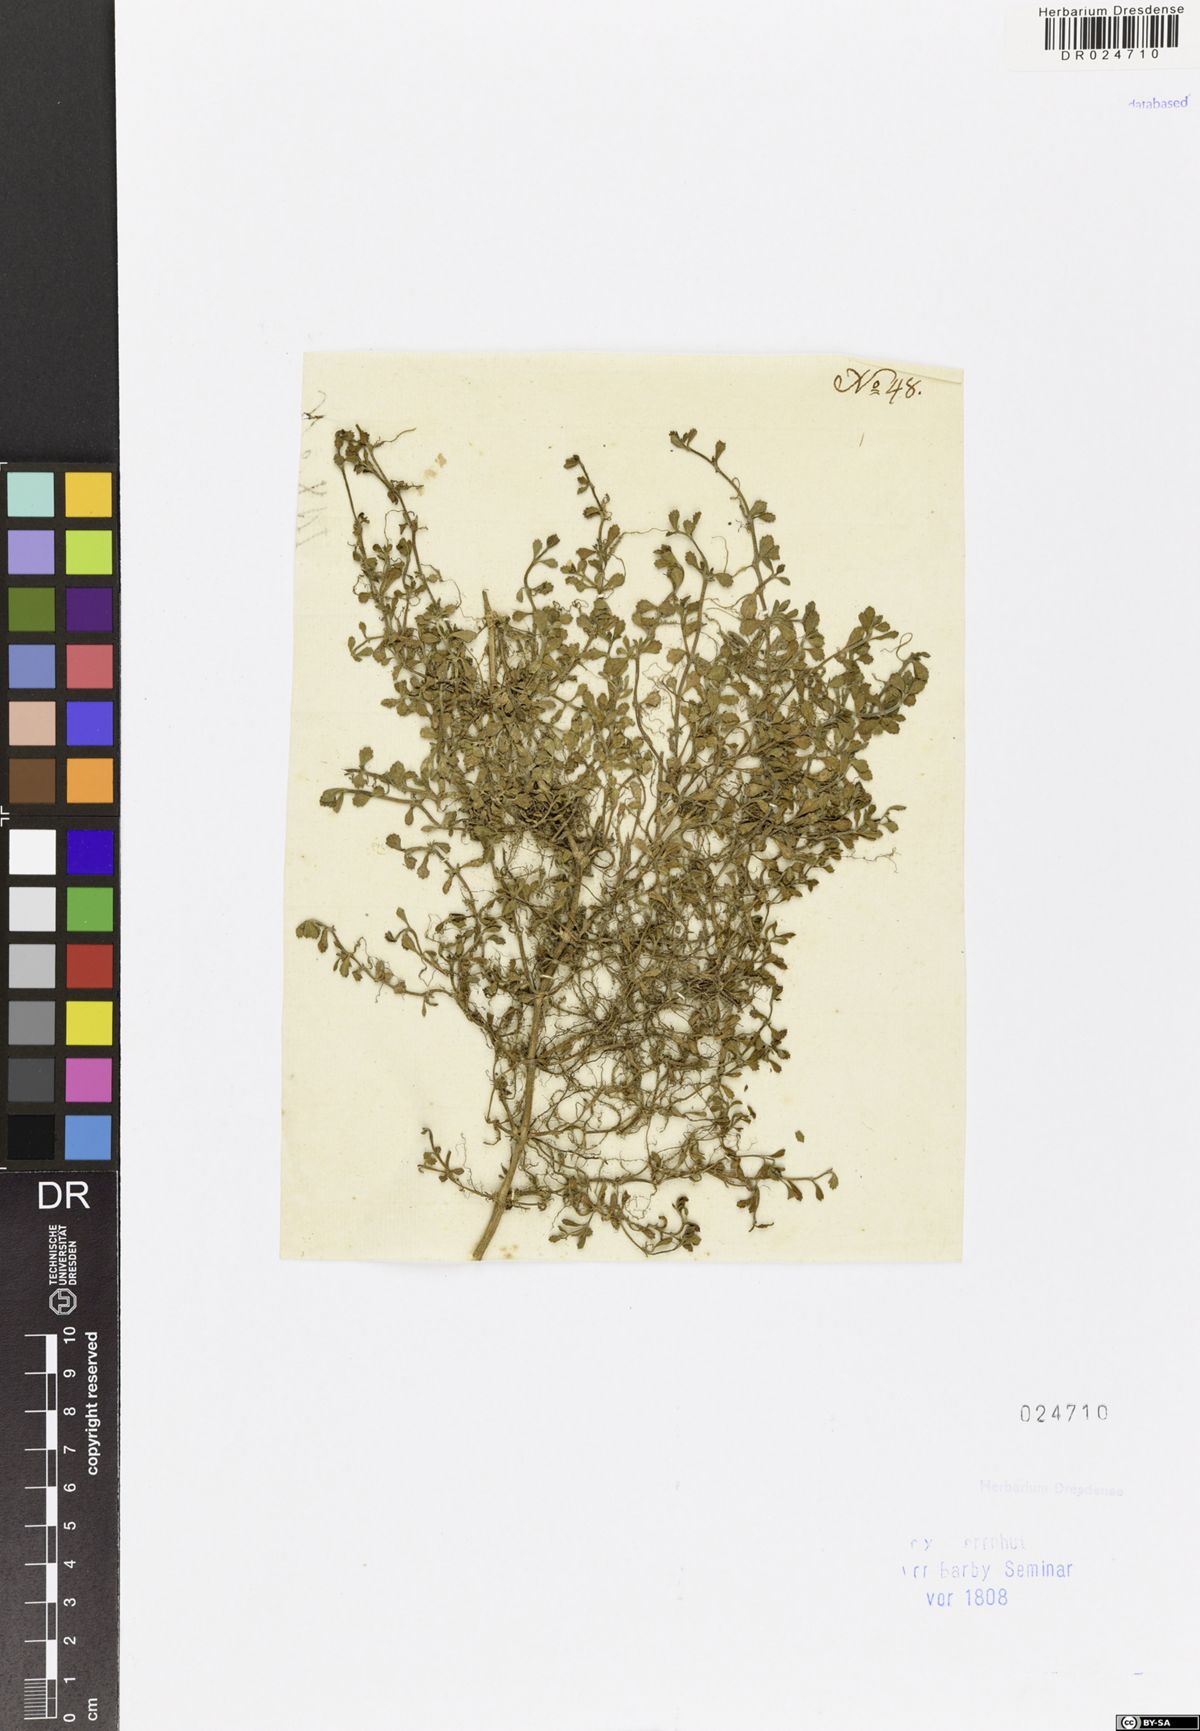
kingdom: Plantae
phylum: Tracheophyta
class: Magnoliopsida
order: Lamiales
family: Verbenaceae
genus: Phyla
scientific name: Phyla nodiflora
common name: Frogfruit
